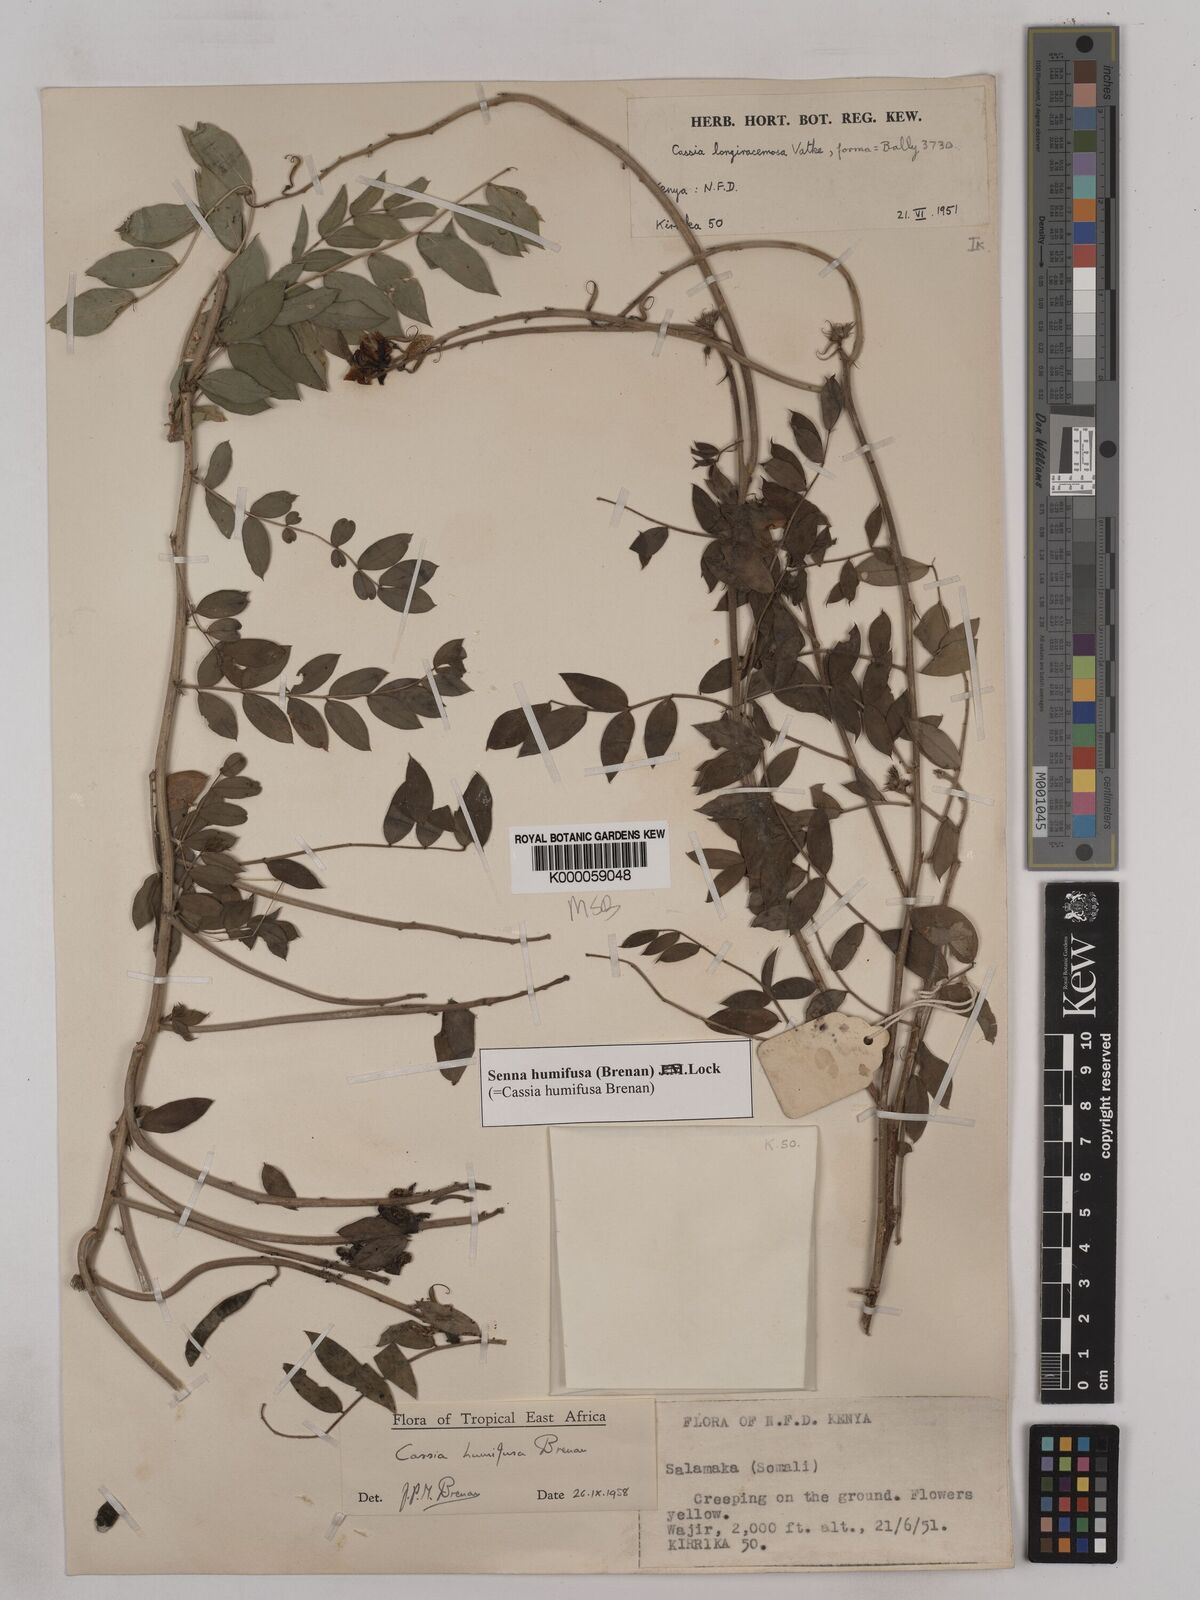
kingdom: Plantae
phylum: Tracheophyta
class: Magnoliopsida
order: Fabales
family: Fabaceae
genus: Senna
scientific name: Senna humifusa
